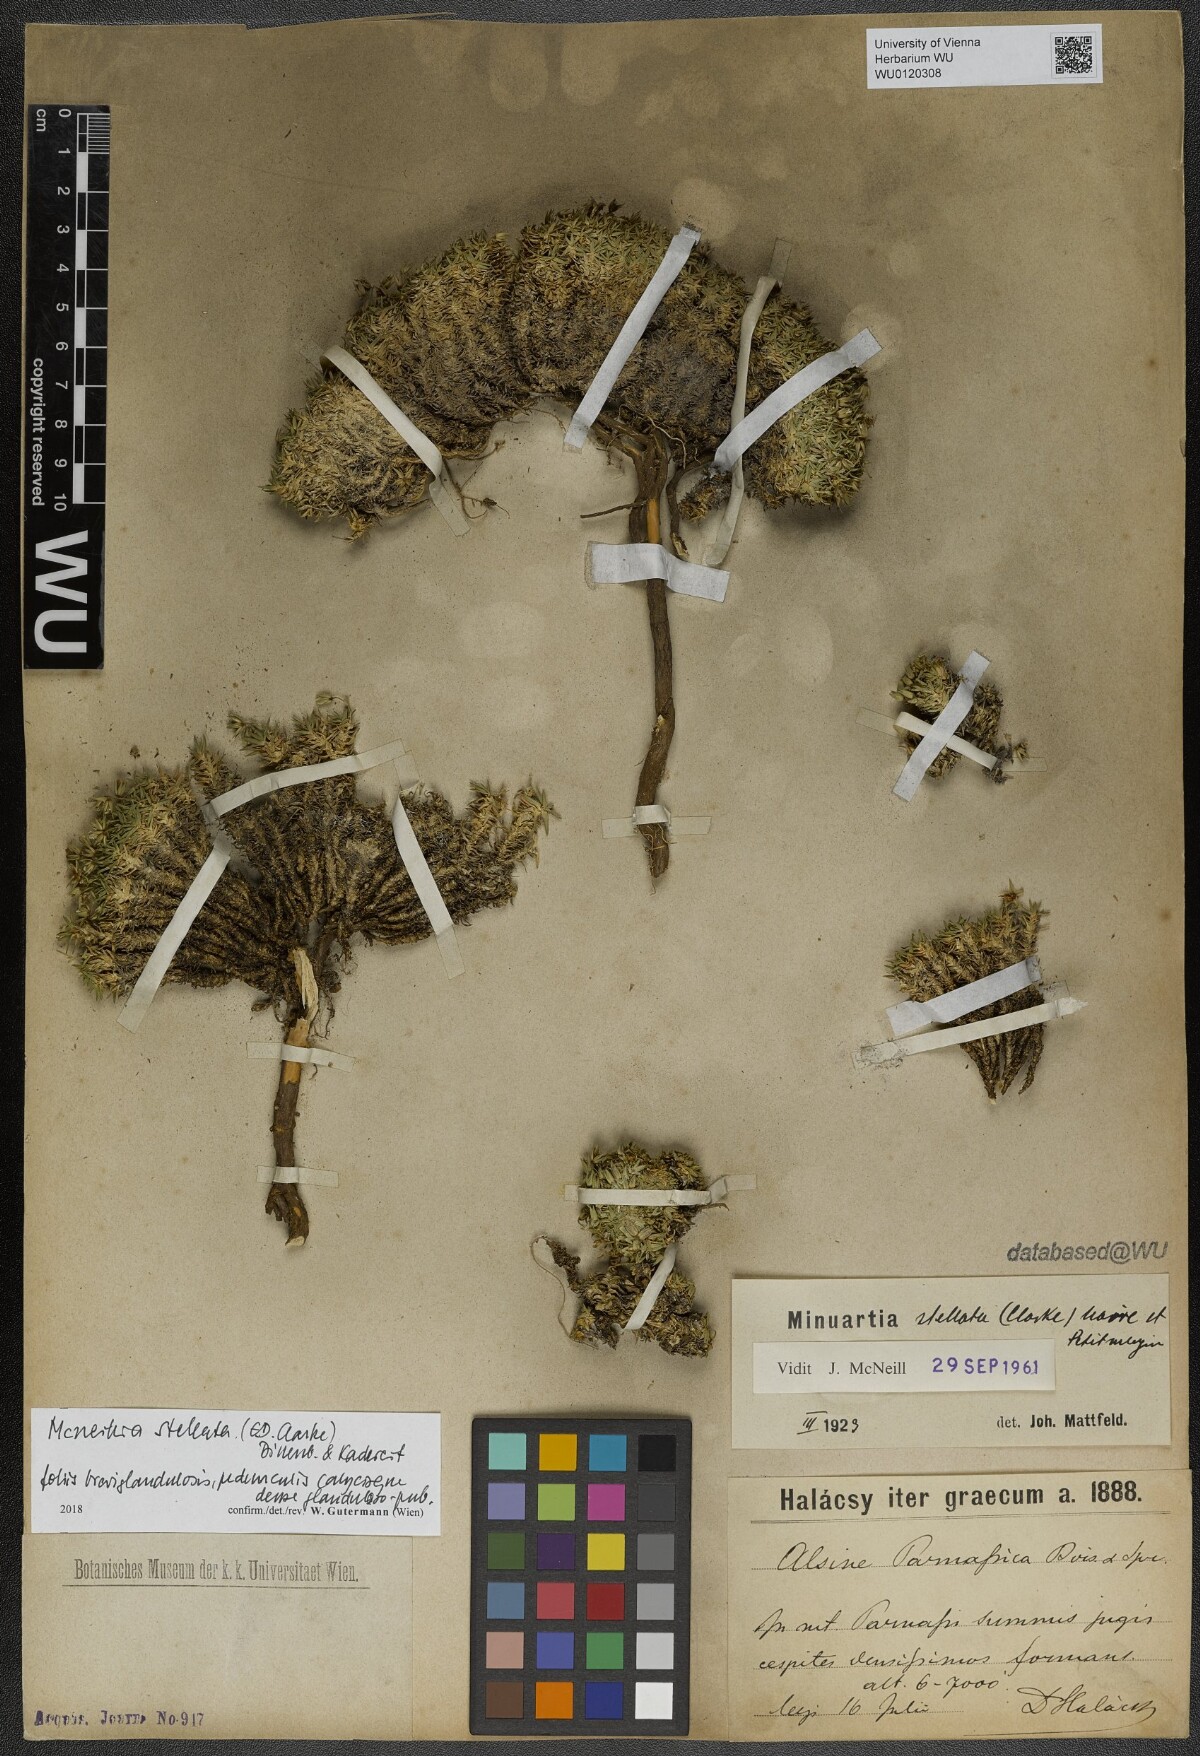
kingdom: Plantae
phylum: Tracheophyta
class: Magnoliopsida
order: Caryophyllales
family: Caryophyllaceae
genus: Mcneillia
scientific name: Mcneillia stellata
